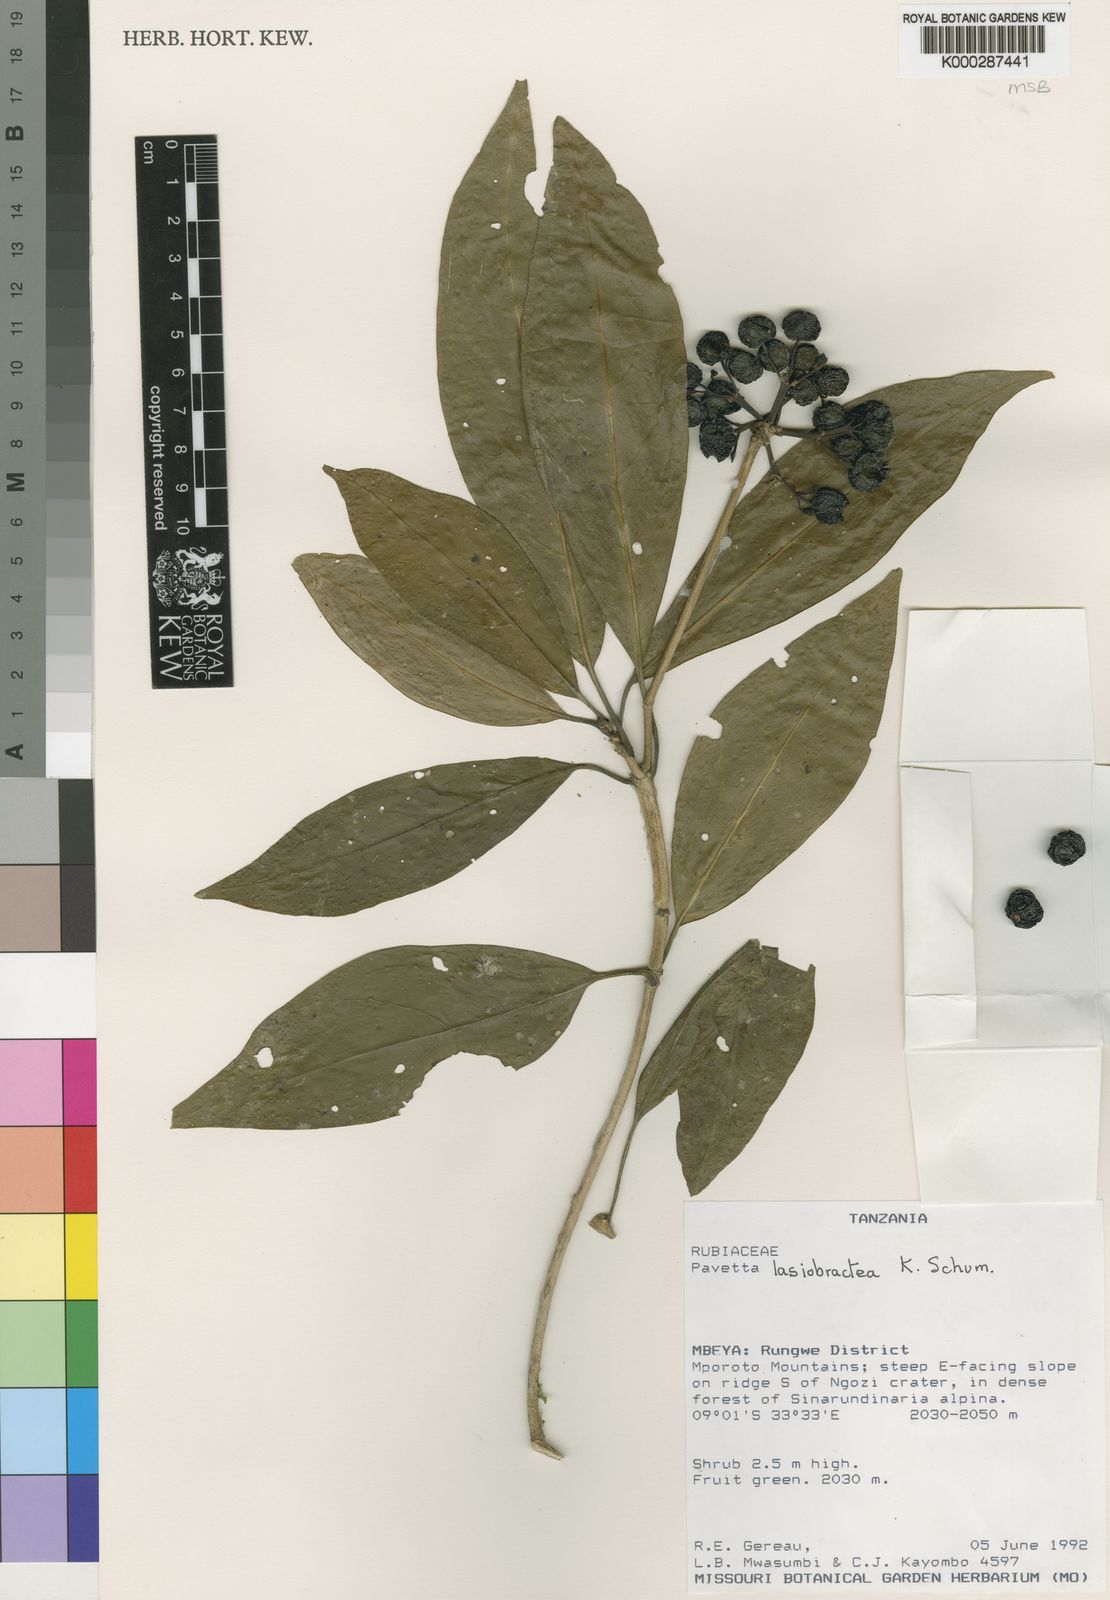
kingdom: Plantae
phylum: Tracheophyta
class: Magnoliopsida
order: Gentianales
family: Rubiaceae
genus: Pavetta
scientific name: Pavetta lasiobractea
